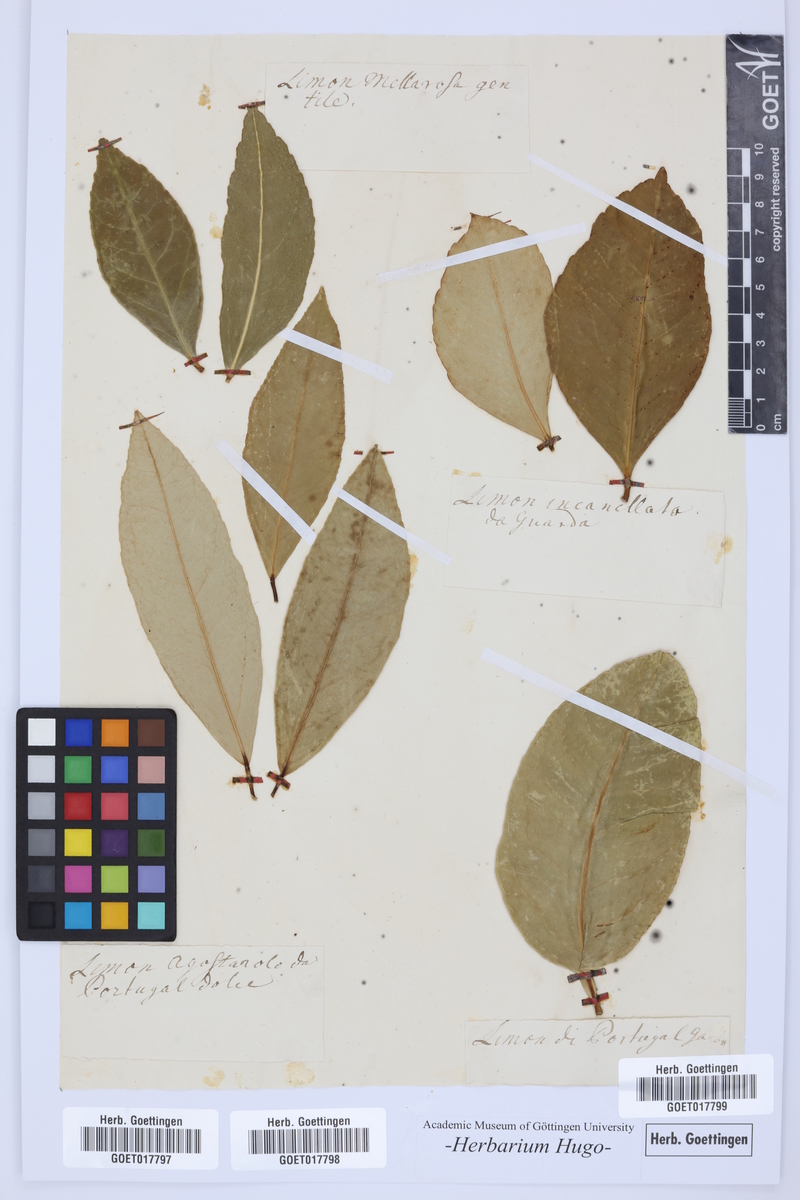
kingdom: Plantae
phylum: Tracheophyta
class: Magnoliopsida
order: Sapindales
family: Rutaceae
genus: Citrus
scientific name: Citrus
